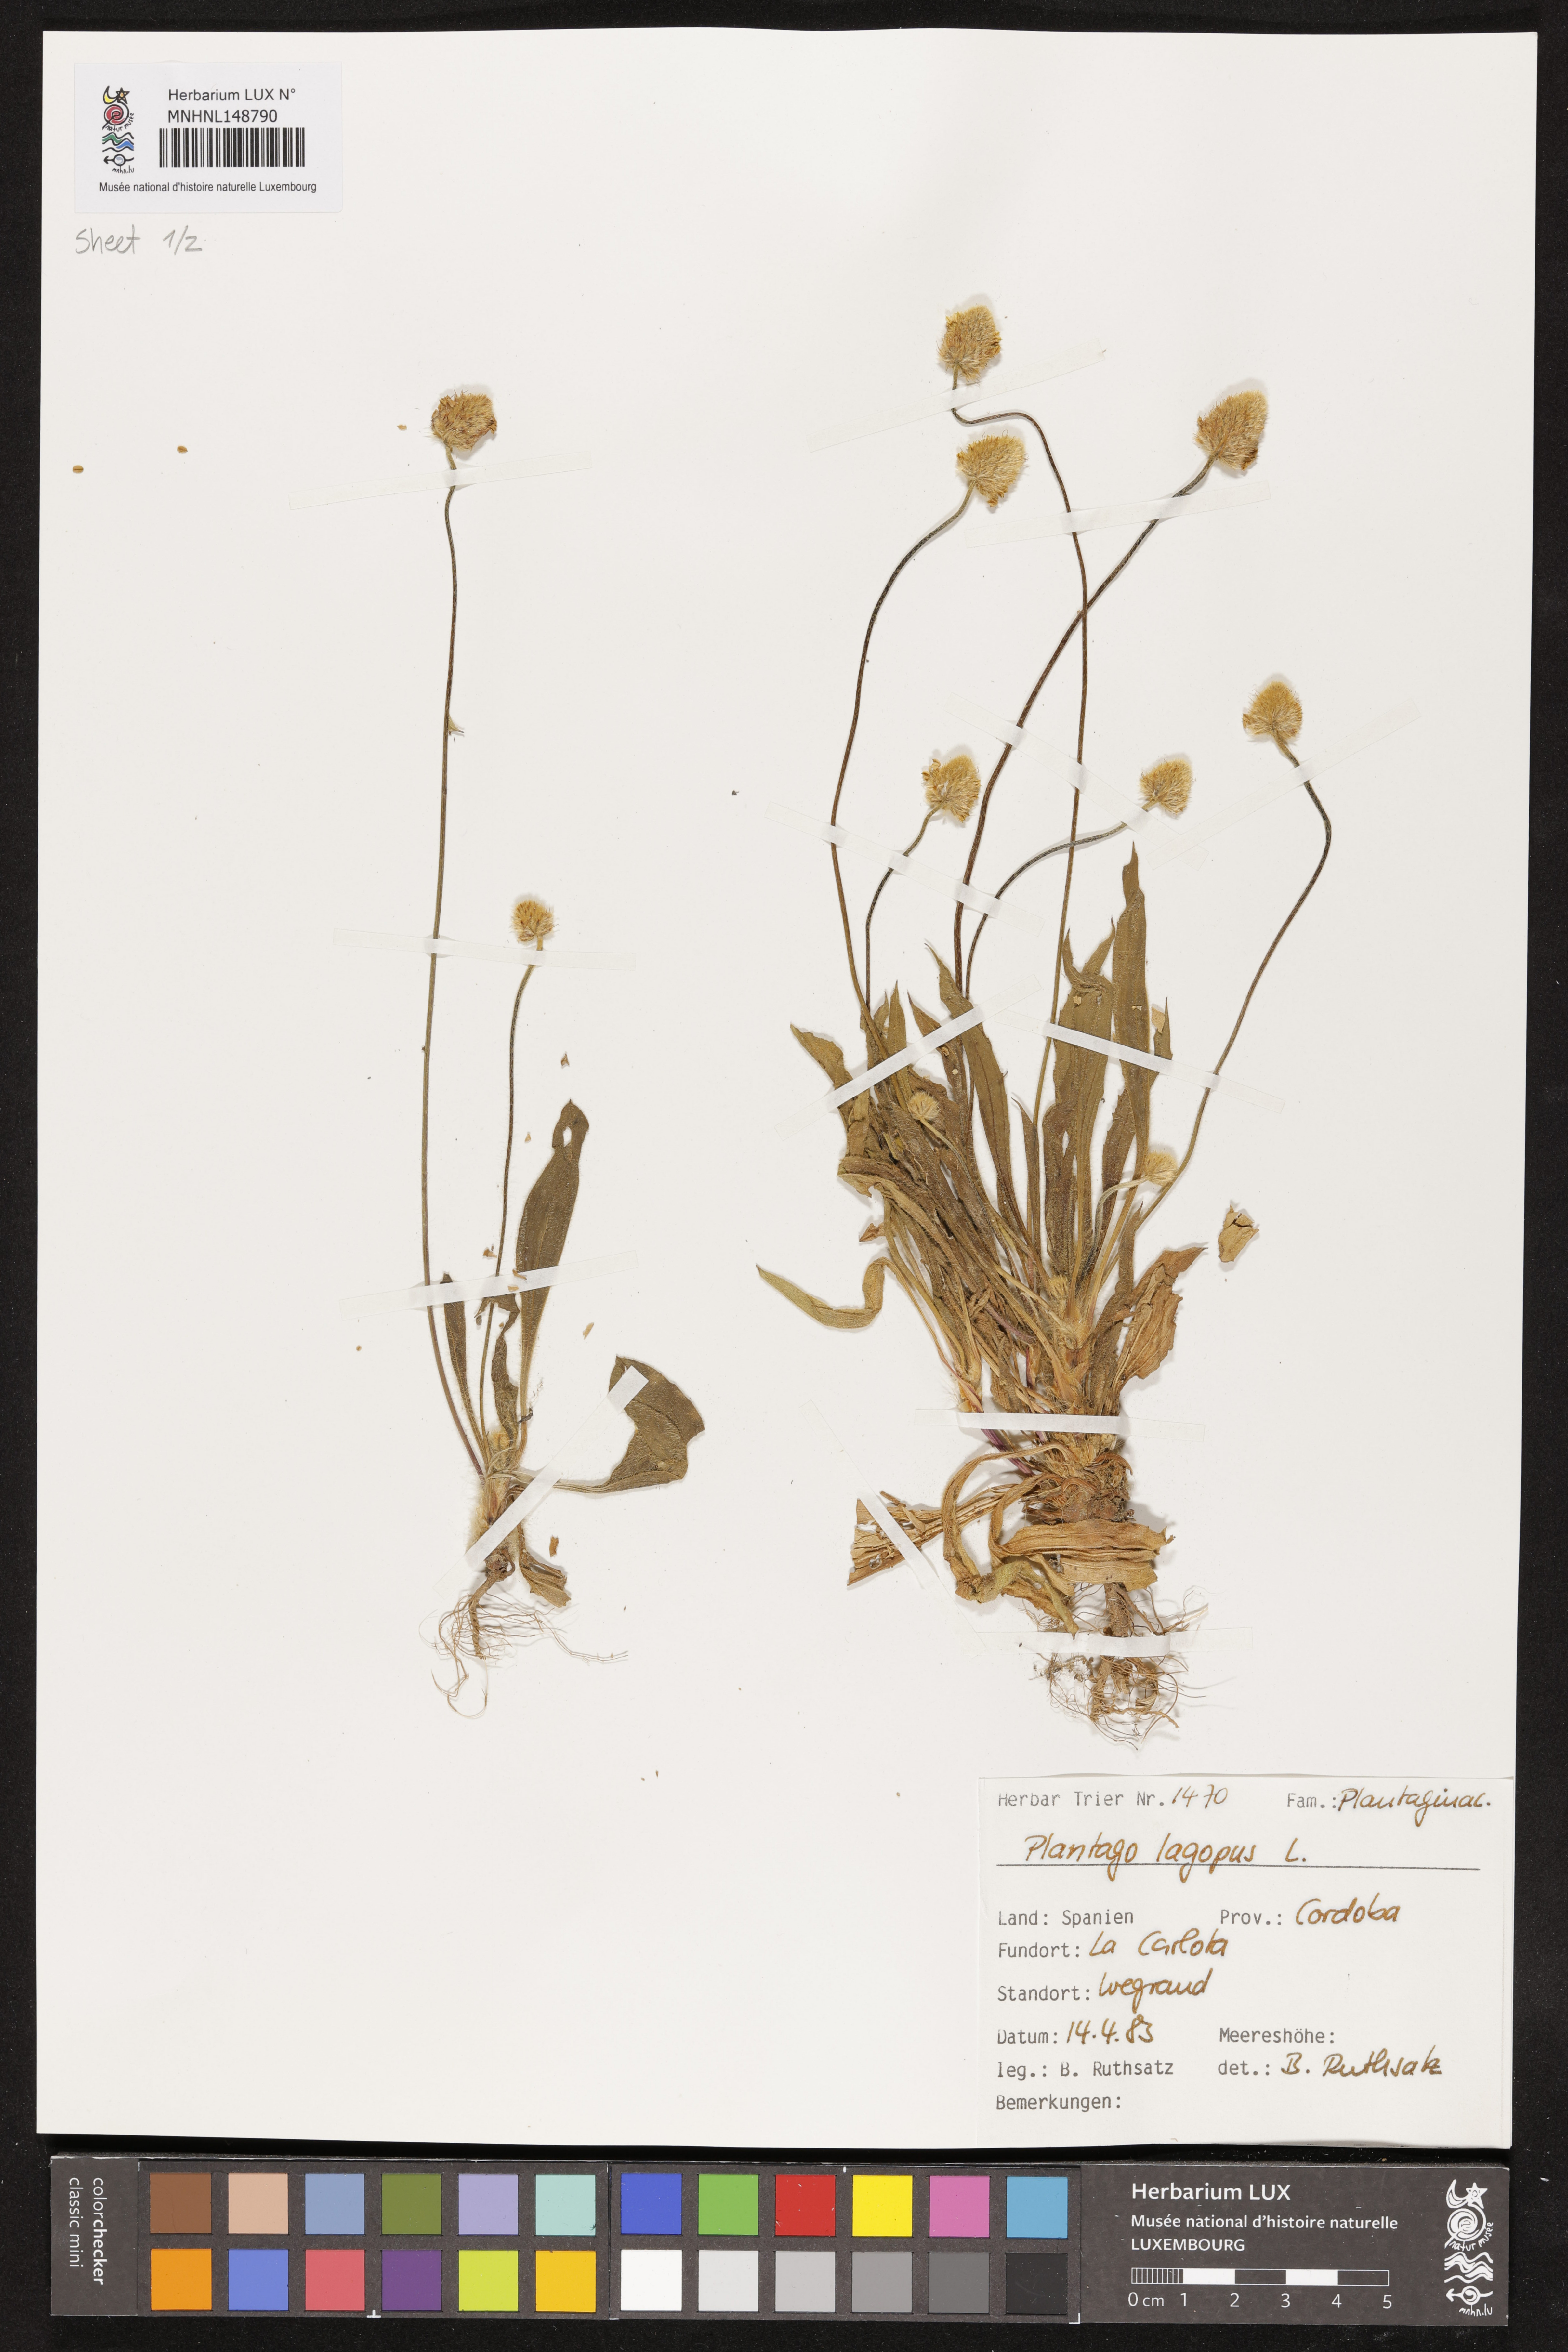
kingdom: Plantae
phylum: Tracheophyta
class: Magnoliopsida
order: Lamiales
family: Plantaginaceae
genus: Plantago
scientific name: Plantago lagopus
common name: Hare-foot plantain
